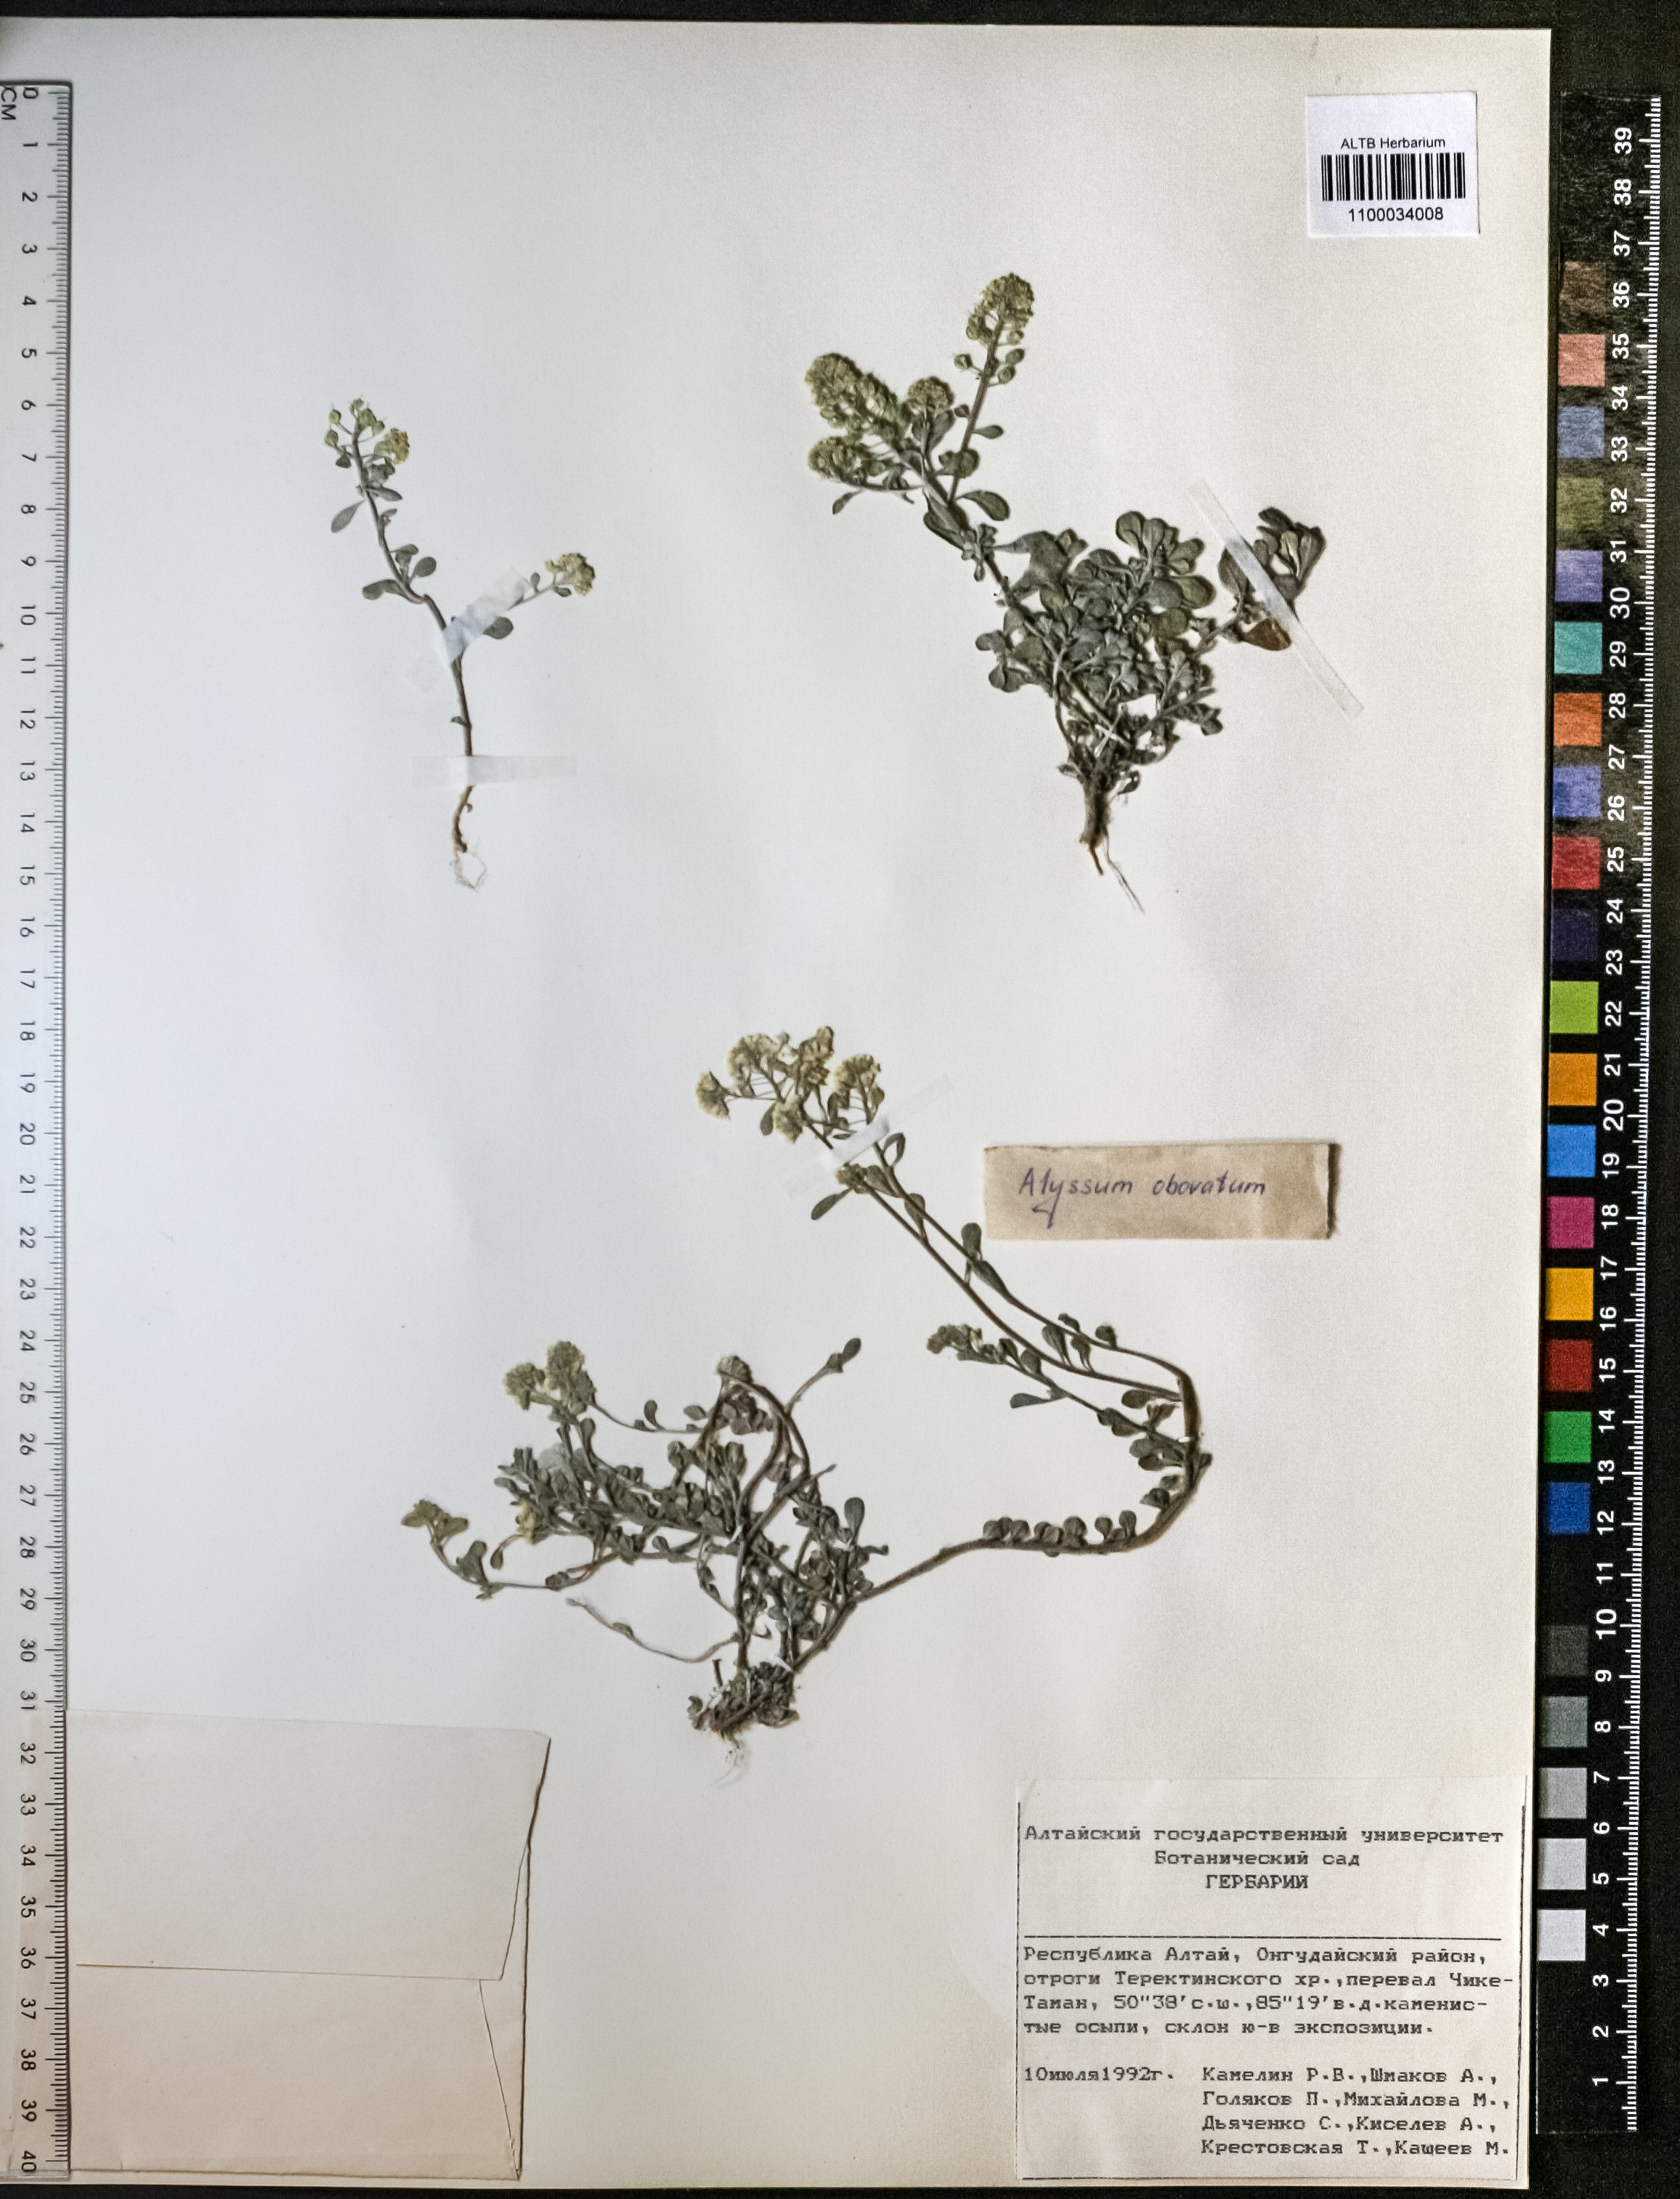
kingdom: Plantae
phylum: Tracheophyta
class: Magnoliopsida
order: Brassicales
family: Brassicaceae
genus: Odontarrhena
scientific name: Odontarrhena obovata
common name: American alyssum
